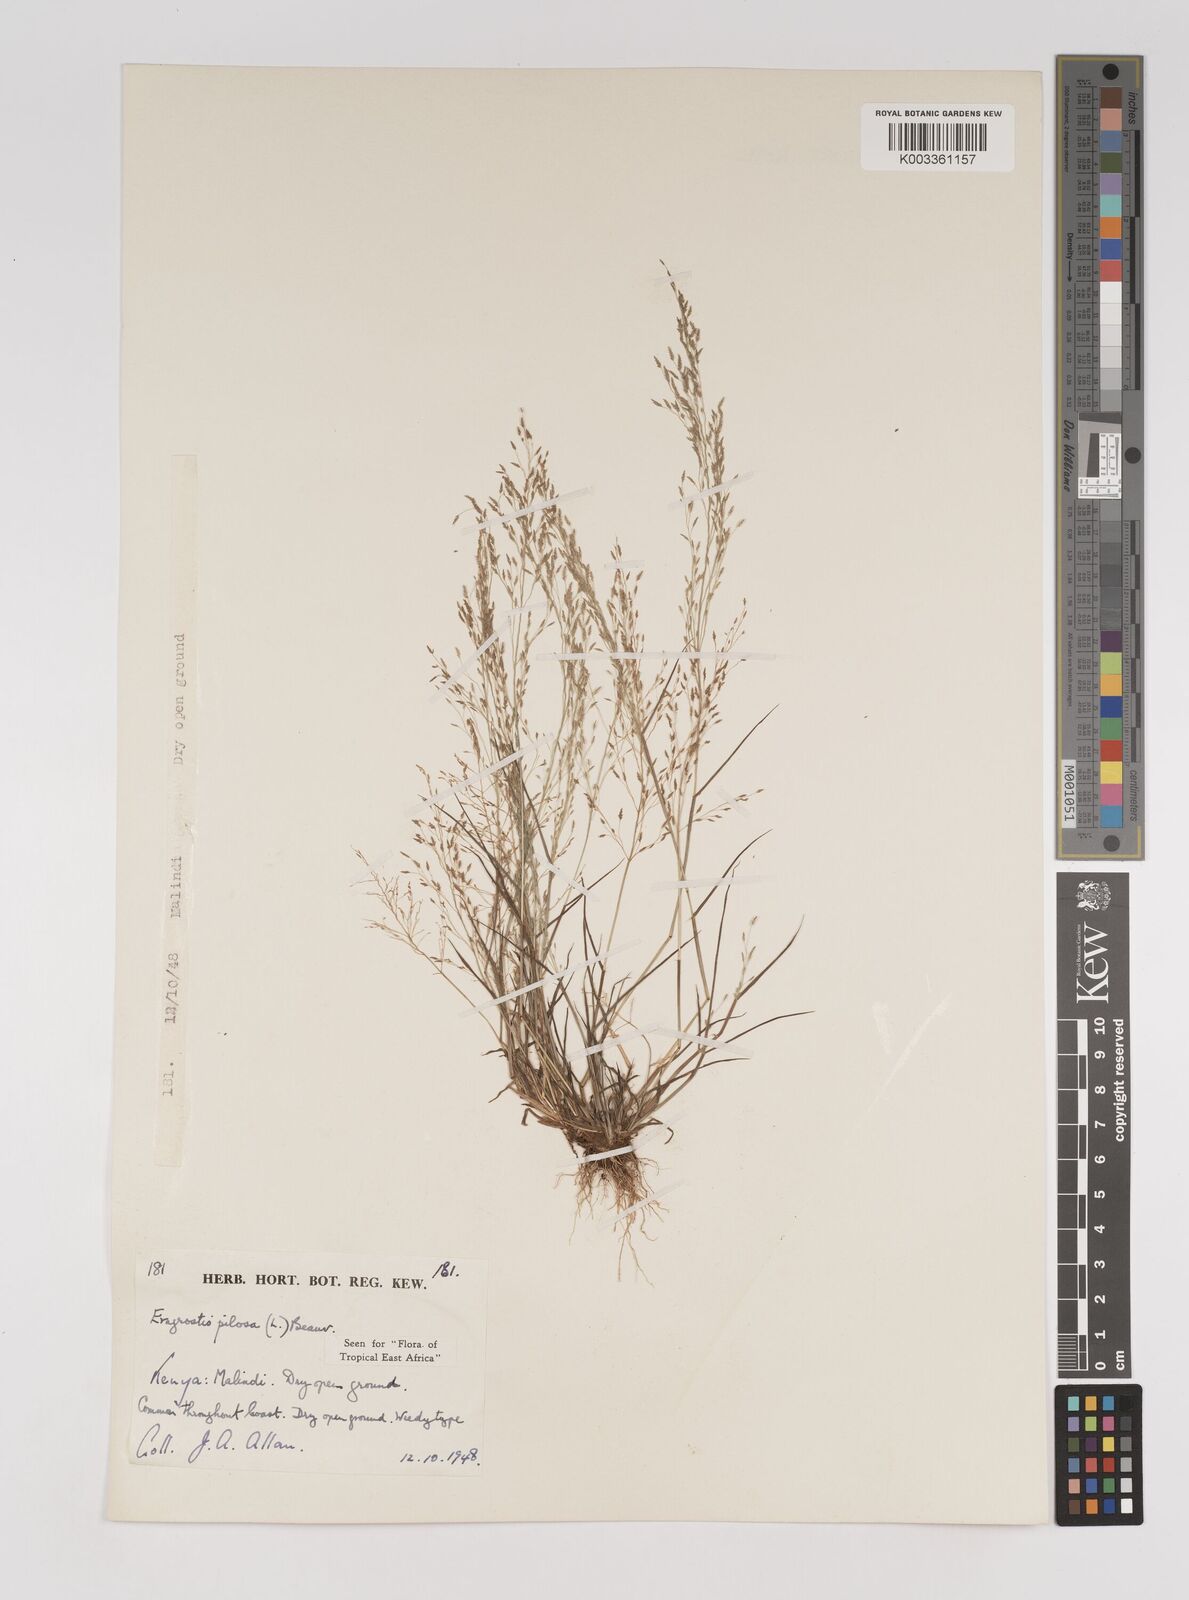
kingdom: Plantae
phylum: Tracheophyta
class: Liliopsida
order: Poales
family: Poaceae
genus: Eragrostis
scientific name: Eragrostis pilosa
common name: Indian lovegrass
